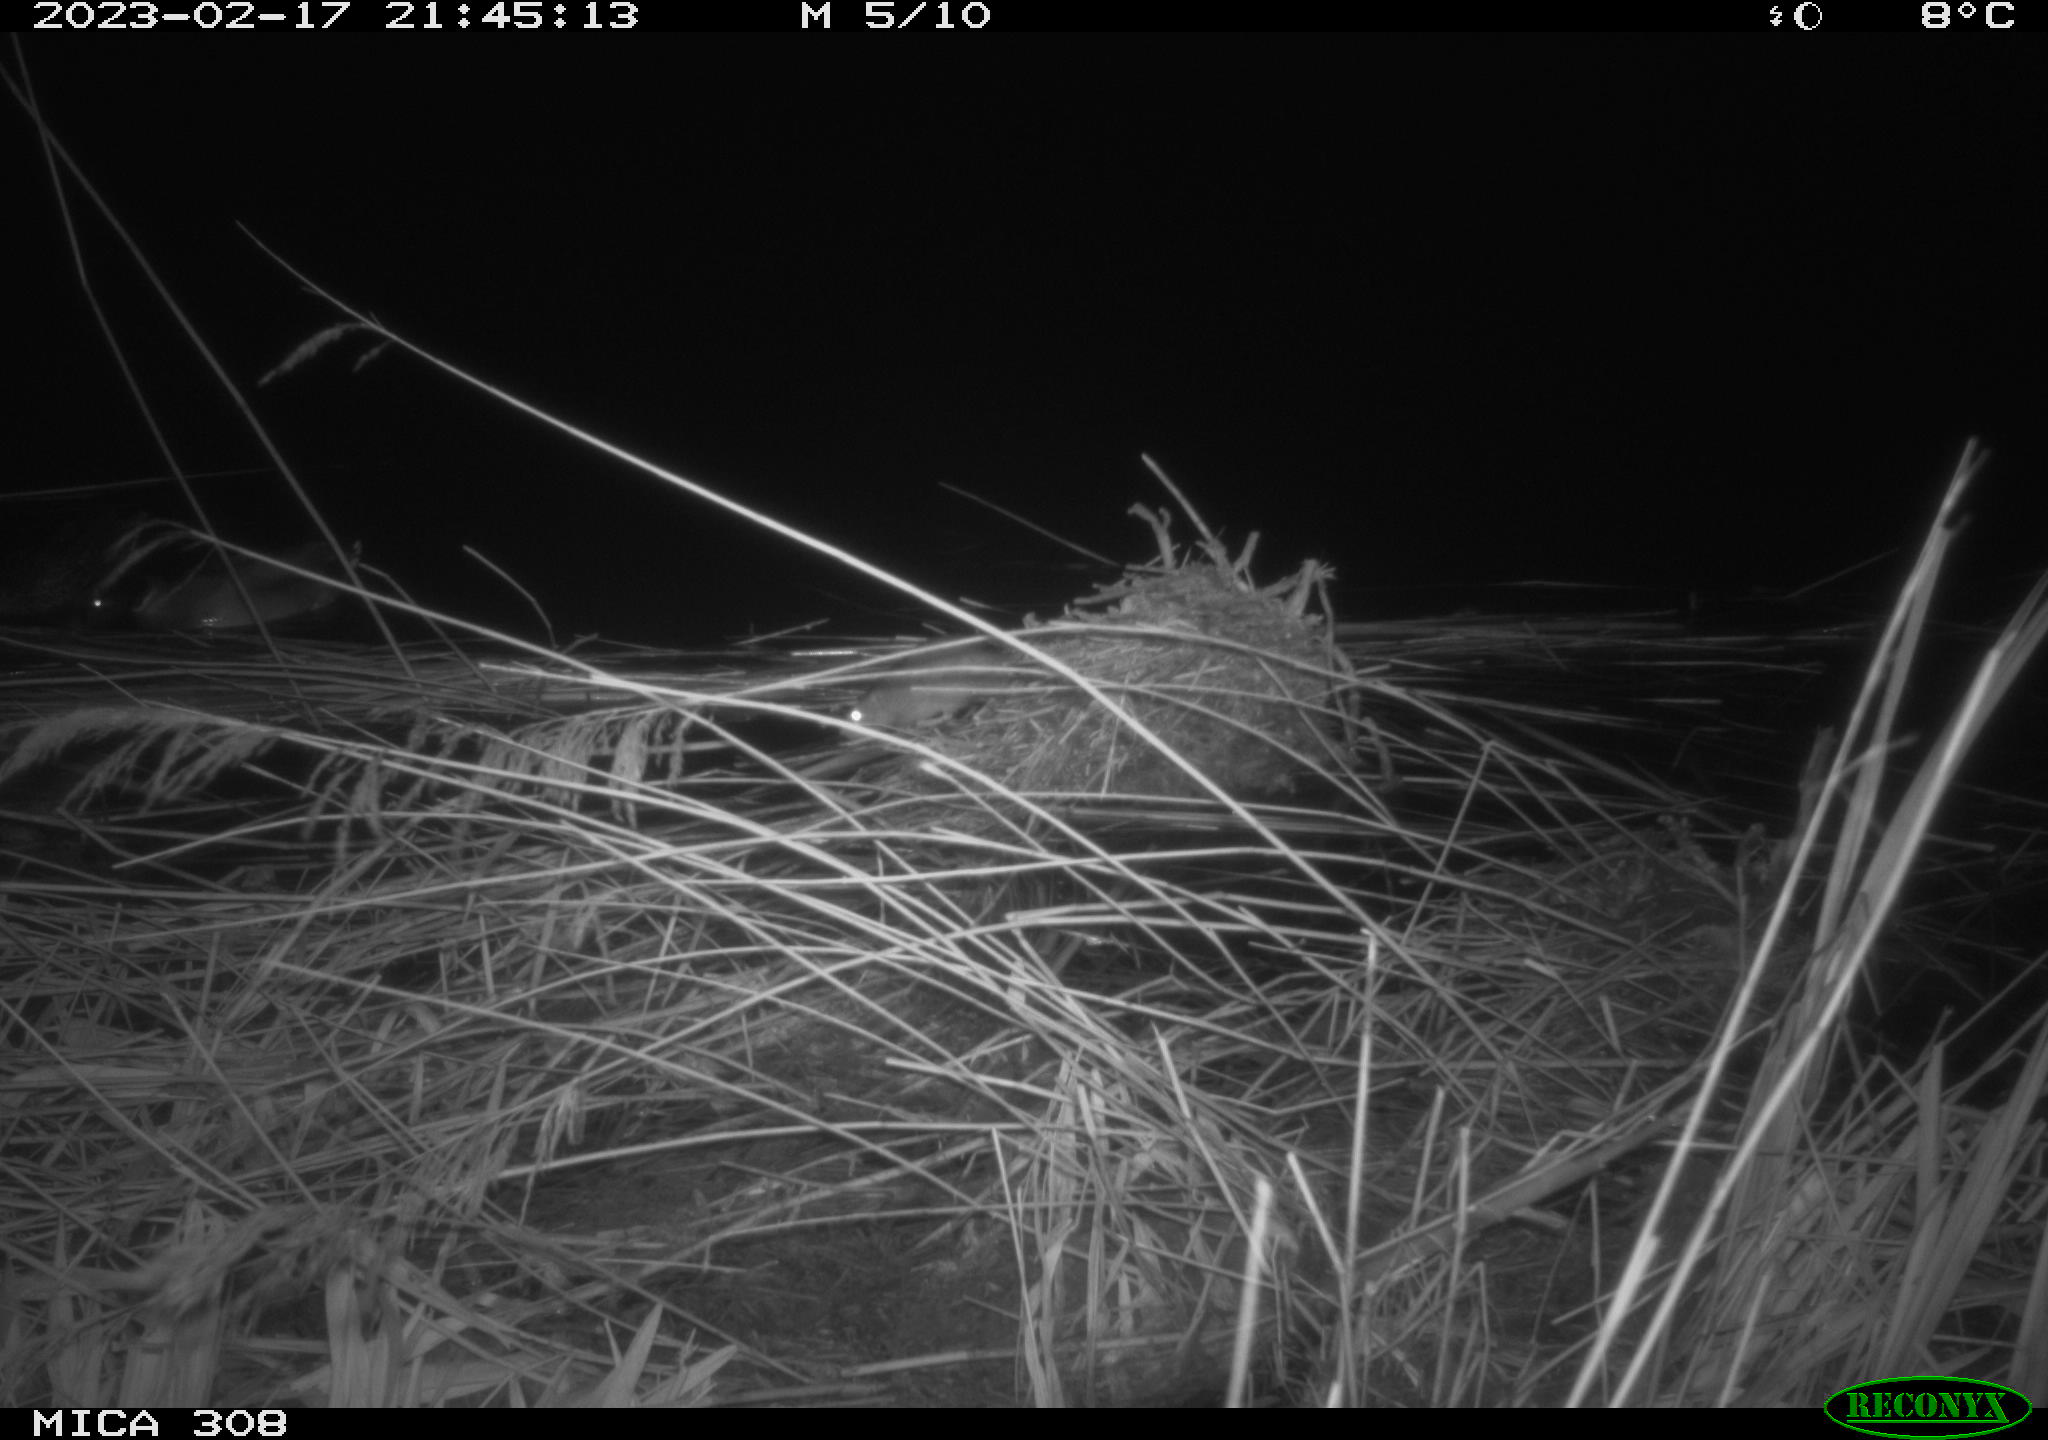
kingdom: Animalia
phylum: Chordata
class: Aves
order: Anseriformes
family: Anatidae
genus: Anas
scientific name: Anas
